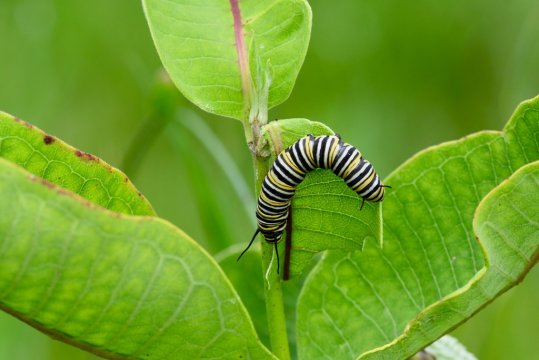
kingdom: Animalia
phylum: Arthropoda
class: Insecta
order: Lepidoptera
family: Nymphalidae
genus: Danaus
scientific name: Danaus plexippus
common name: Monarch
